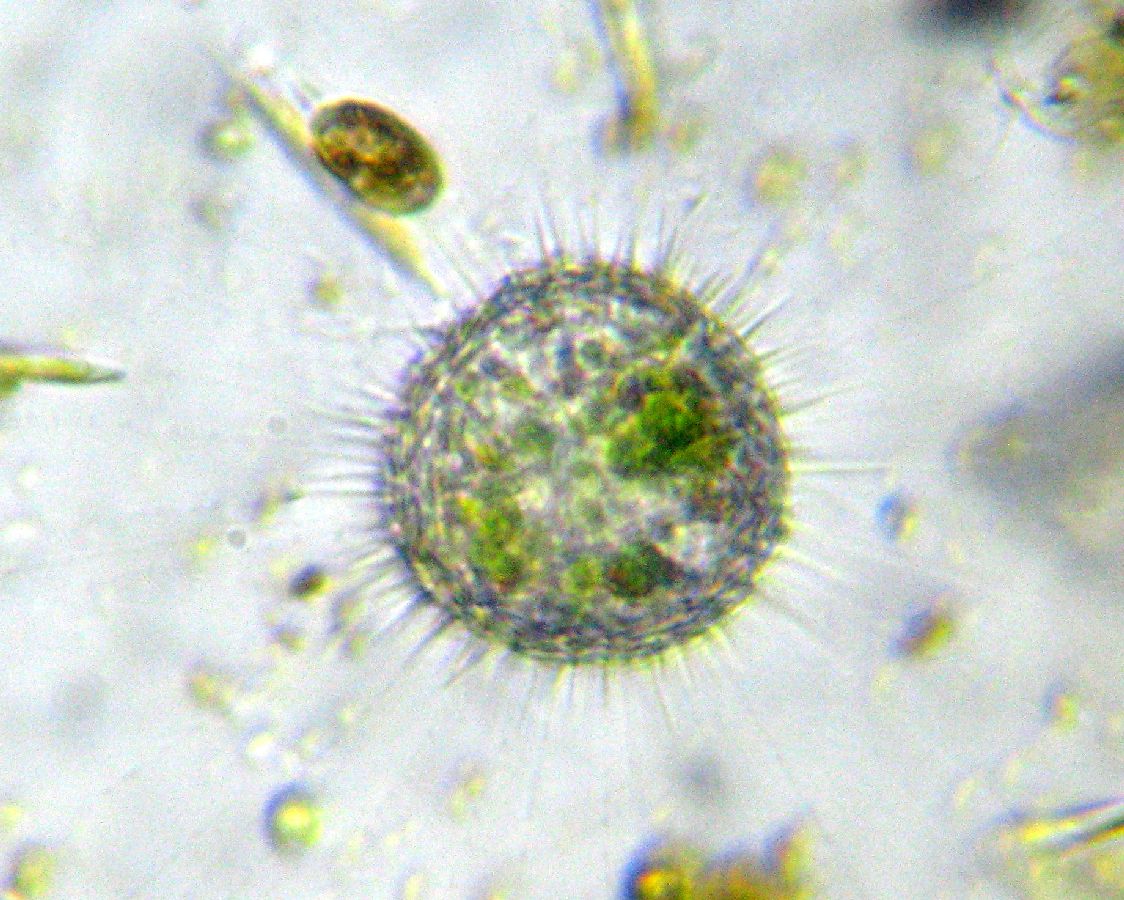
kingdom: Chromista
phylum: Heliozoa
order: Centrohelida
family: Acanthocystidae
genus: Acanthocystis
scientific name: Acanthocystis turfacea
